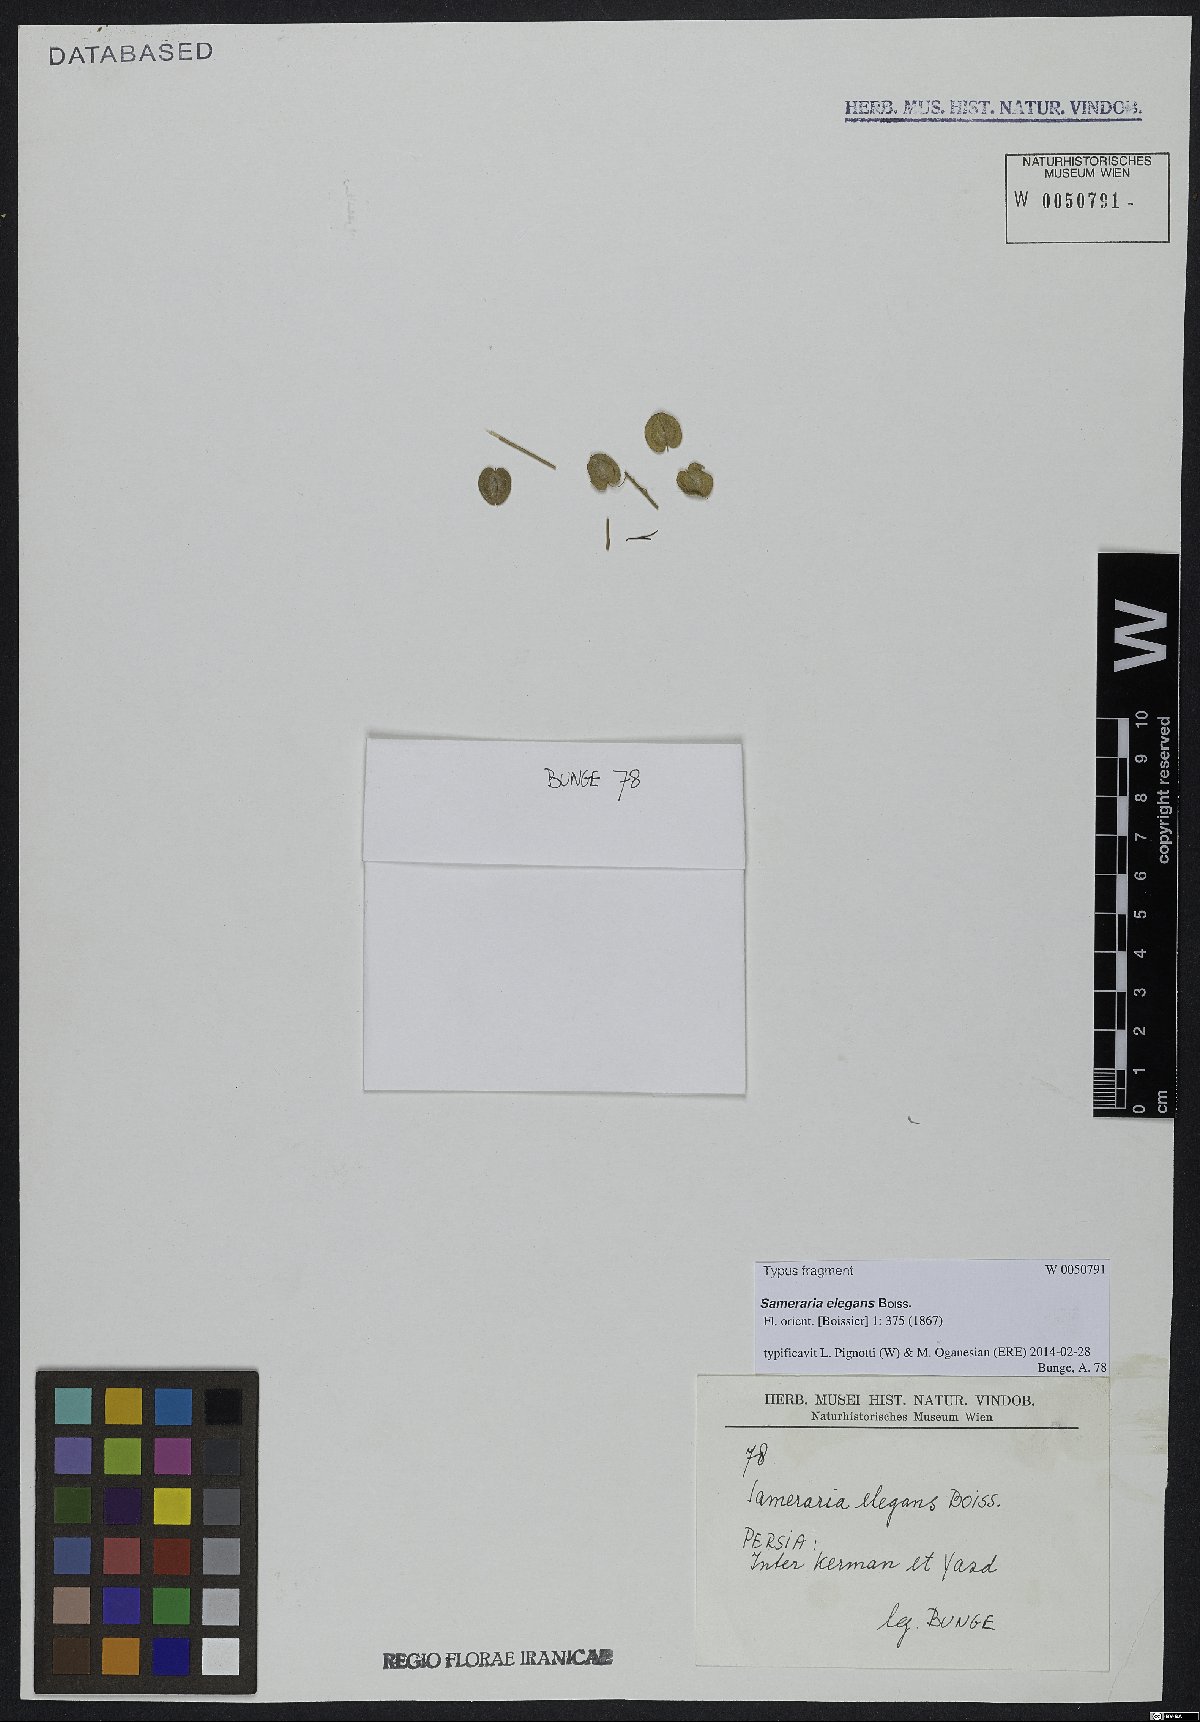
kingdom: Plantae
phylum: Tracheophyta
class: Magnoliopsida
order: Brassicales
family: Brassicaceae
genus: Isatis
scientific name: Isatis elegans
